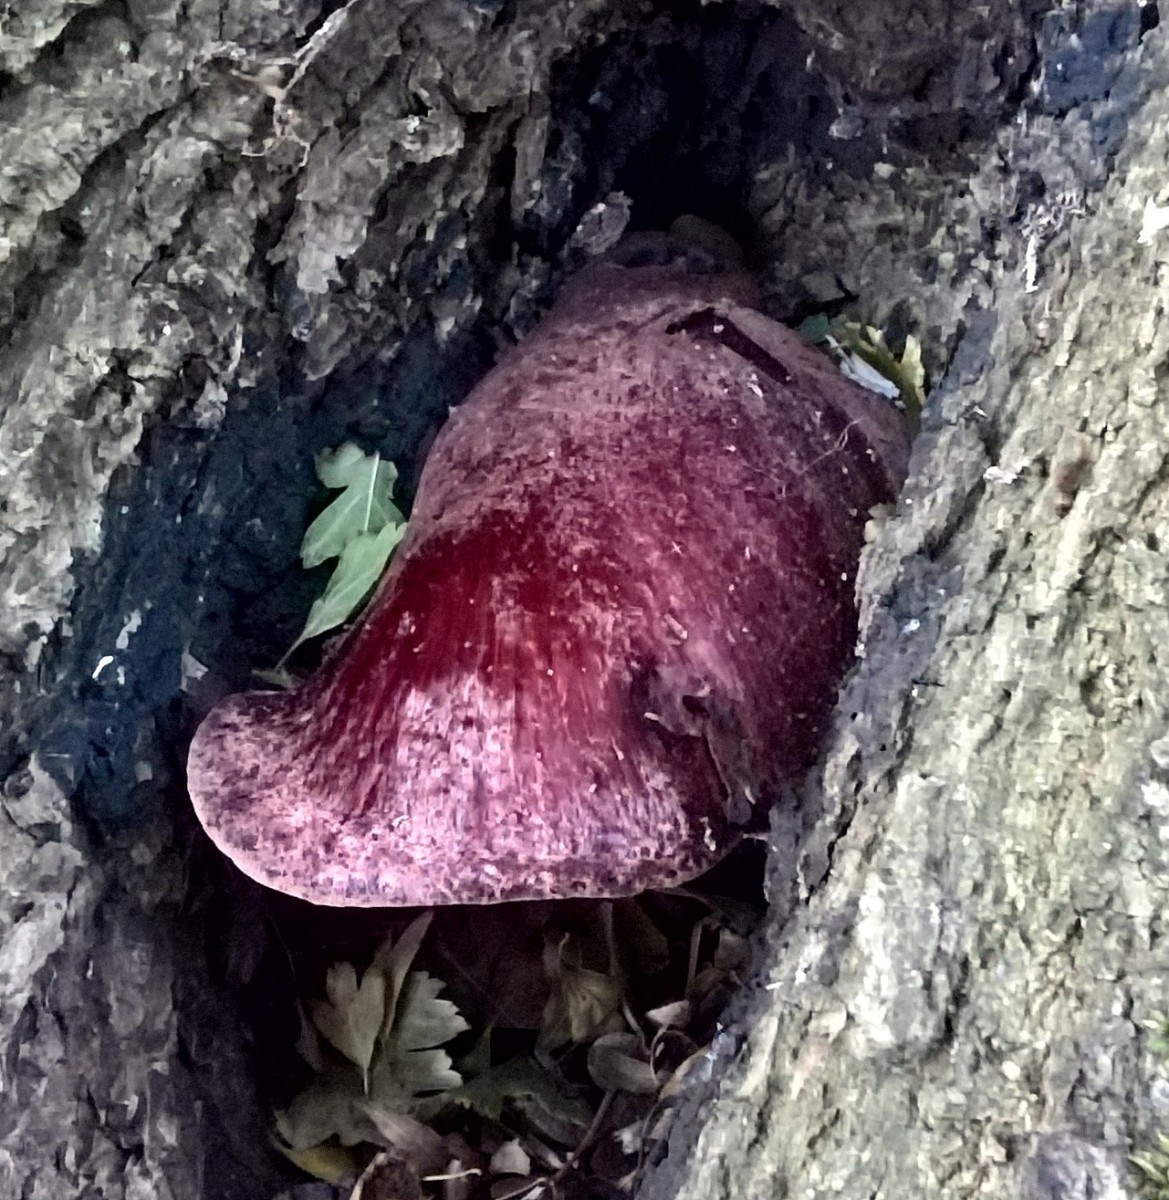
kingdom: Fungi
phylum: Basidiomycota
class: Agaricomycetes
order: Agaricales
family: Fistulinaceae
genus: Fistulina
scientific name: Fistulina hepatica
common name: oksetunge
